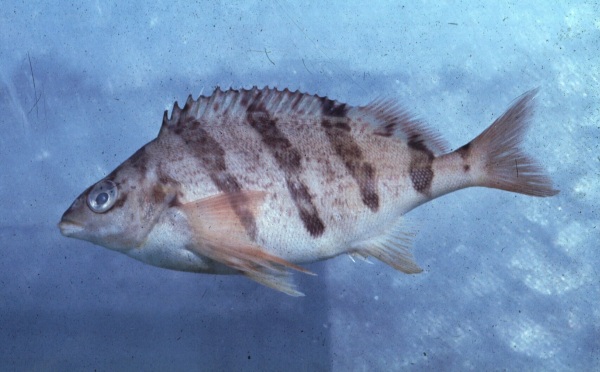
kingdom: Animalia
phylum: Chordata
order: Perciformes
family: Cheilodactylidae
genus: Cheilodactylus
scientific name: Cheilodactylus pixi
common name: Barred fingerfin
